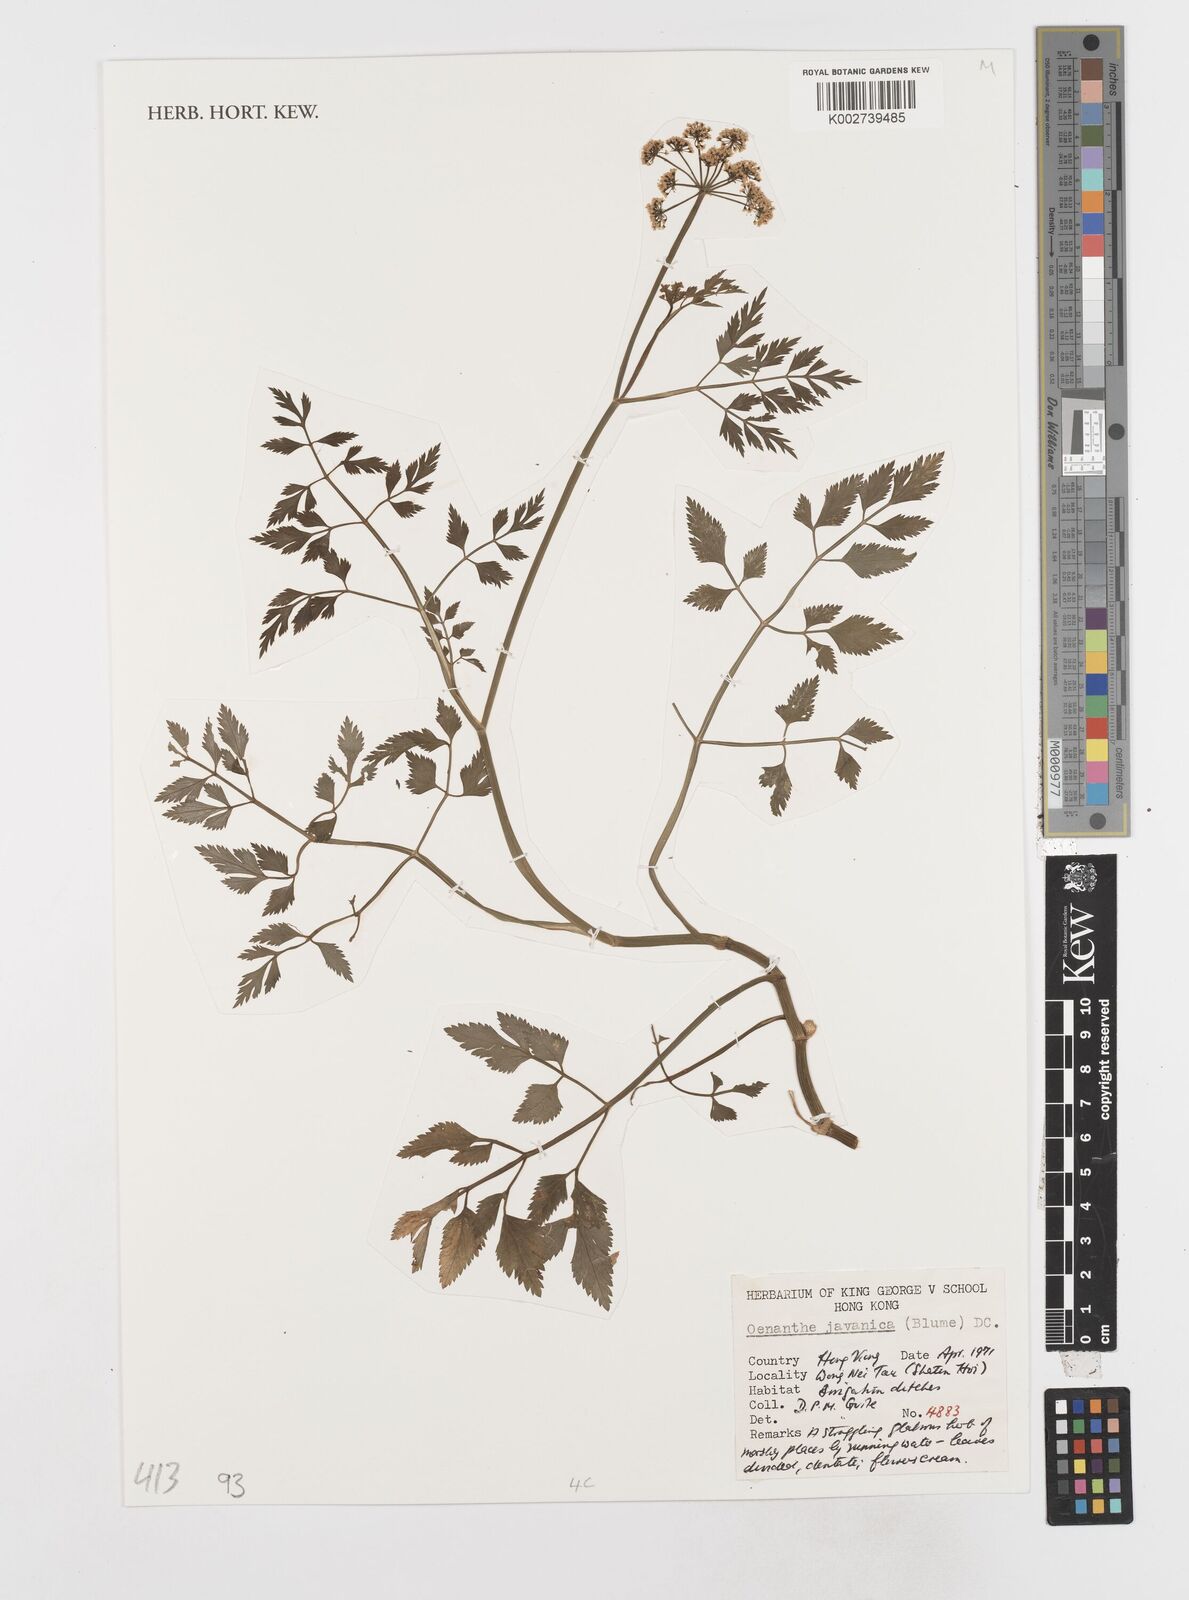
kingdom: Plantae
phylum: Tracheophyta
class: Magnoliopsida
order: Apiales
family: Apiaceae
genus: Oenanthe
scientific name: Oenanthe javanica
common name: Java water-dropwort
